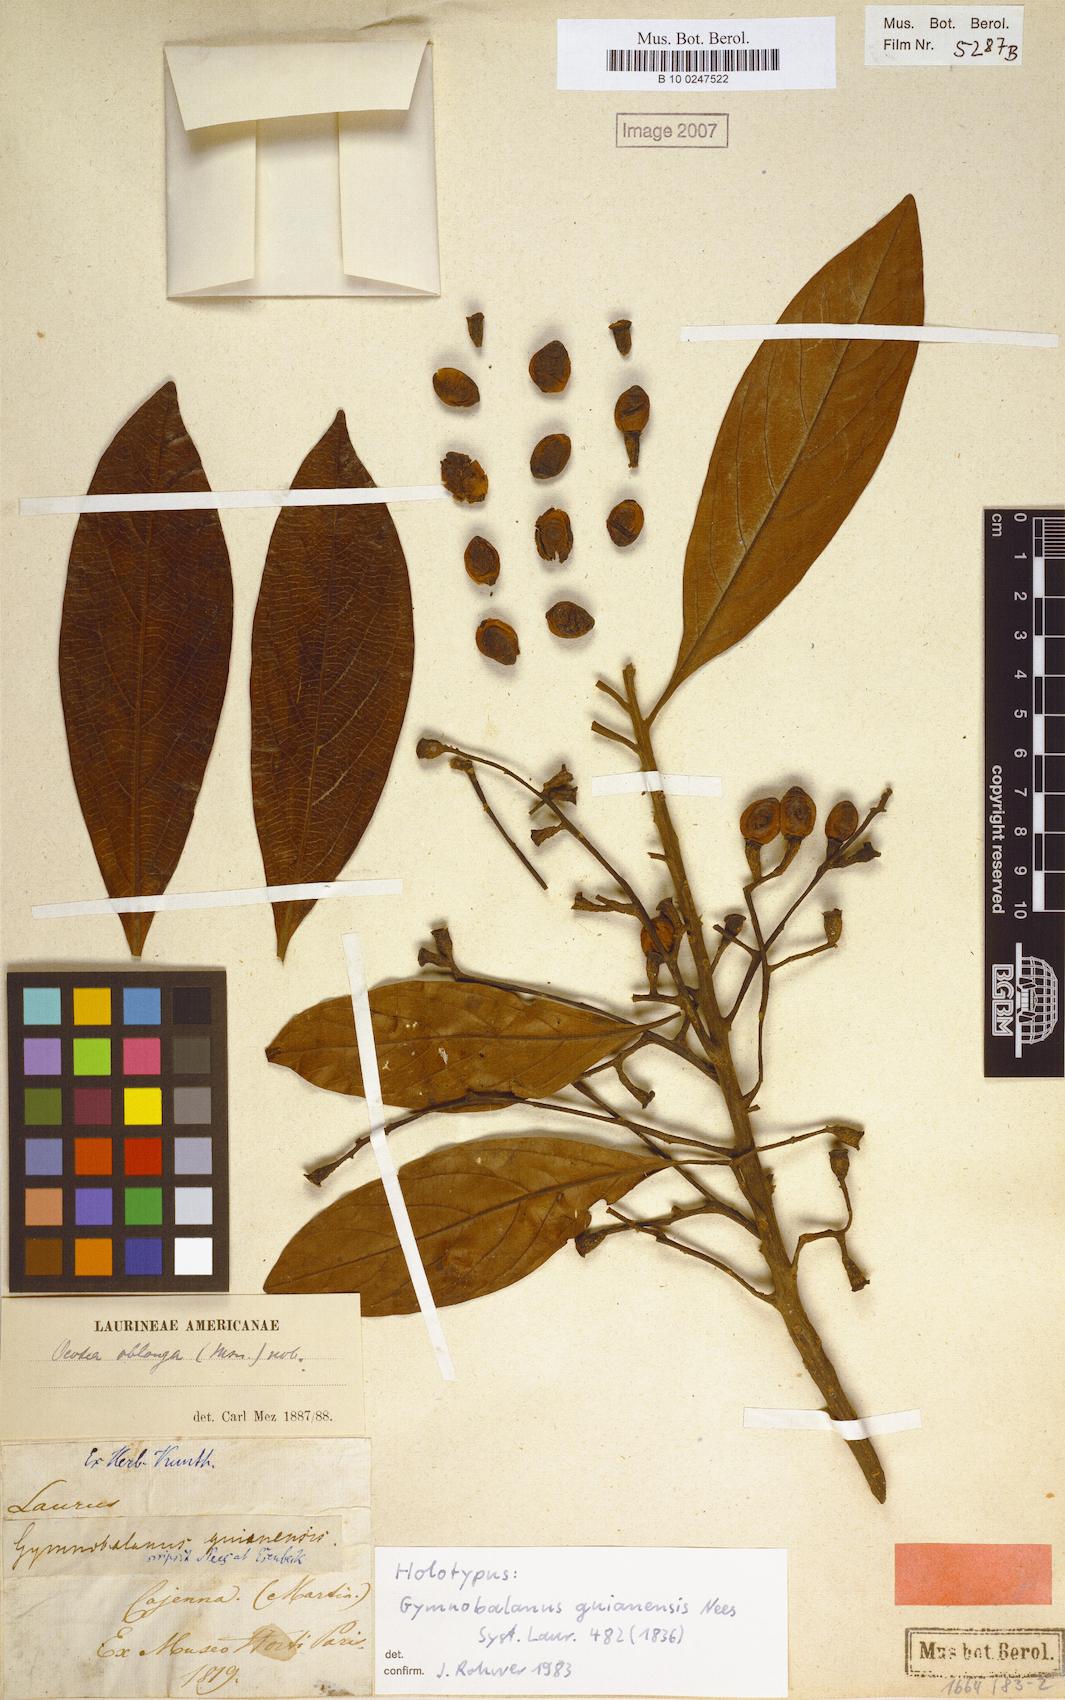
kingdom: Plantae
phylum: Tracheophyta
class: Magnoliopsida
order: Laurales
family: Lauraceae
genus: Ocotea
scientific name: Ocotea oblonga
